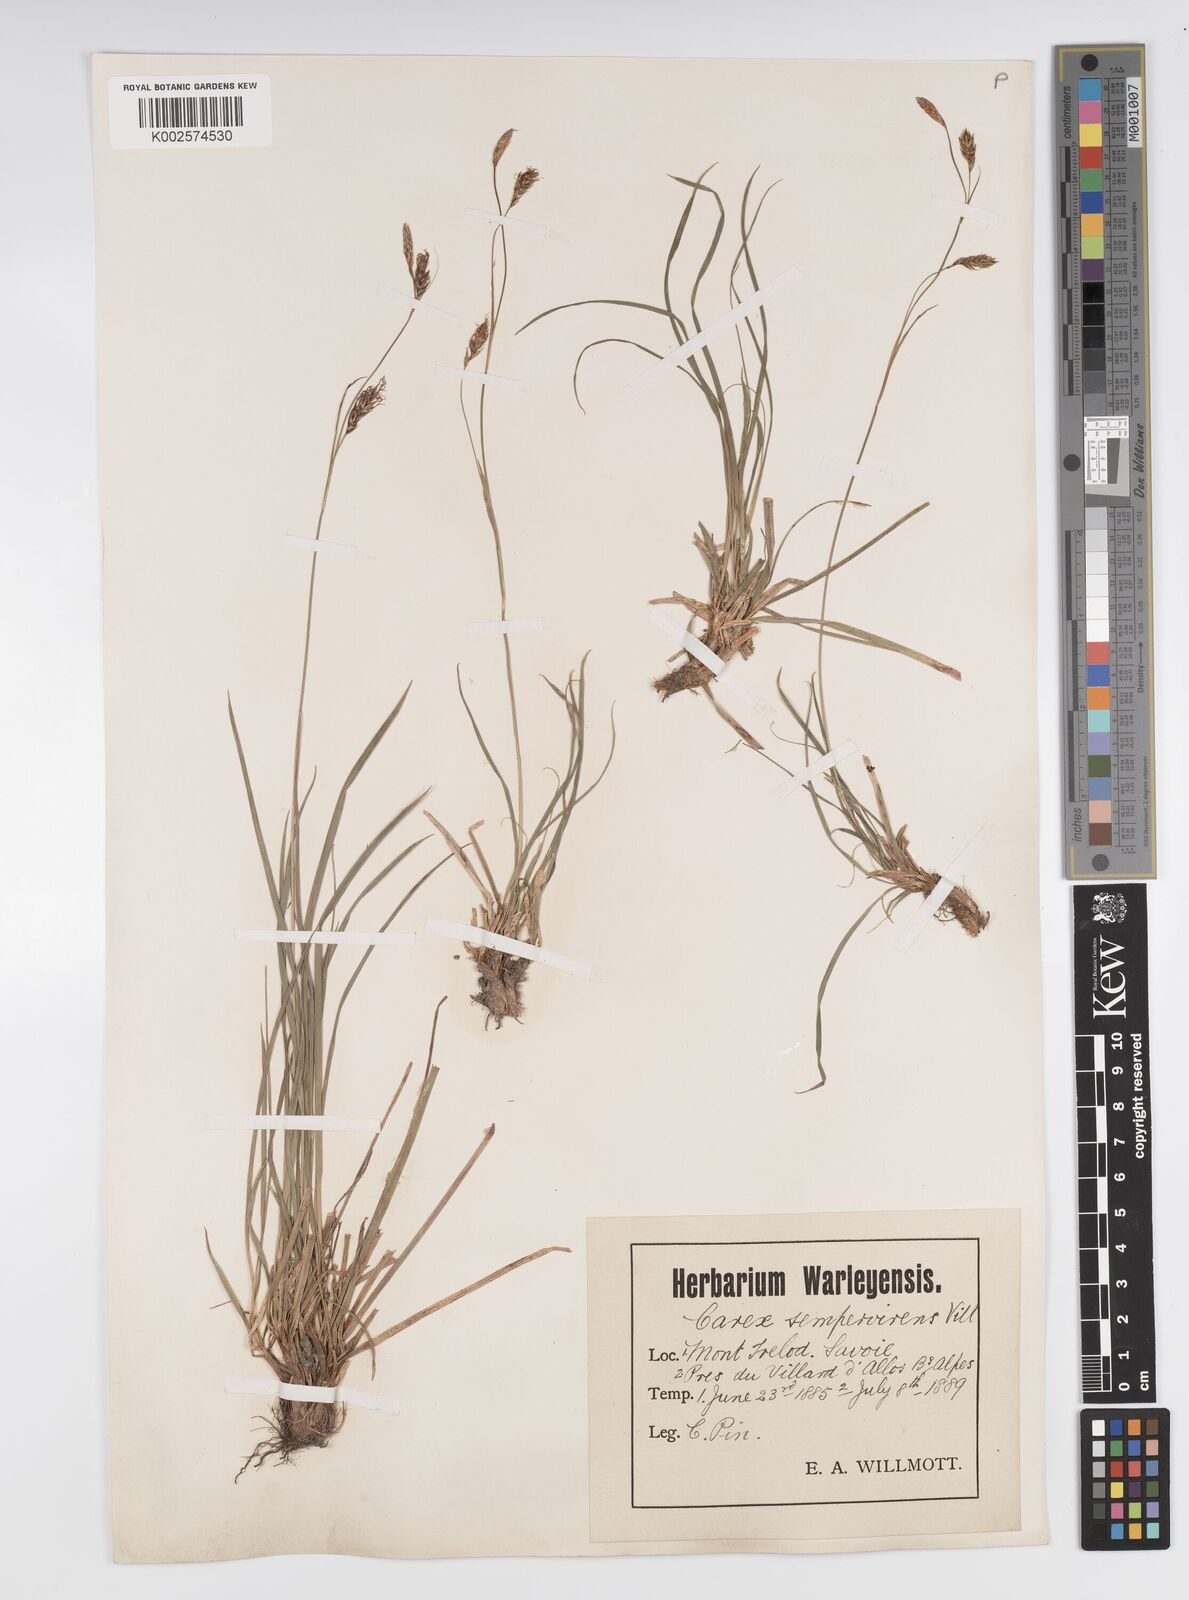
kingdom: Plantae
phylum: Tracheophyta
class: Liliopsida
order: Poales
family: Cyperaceae
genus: Carex
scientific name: Carex sempervirens
